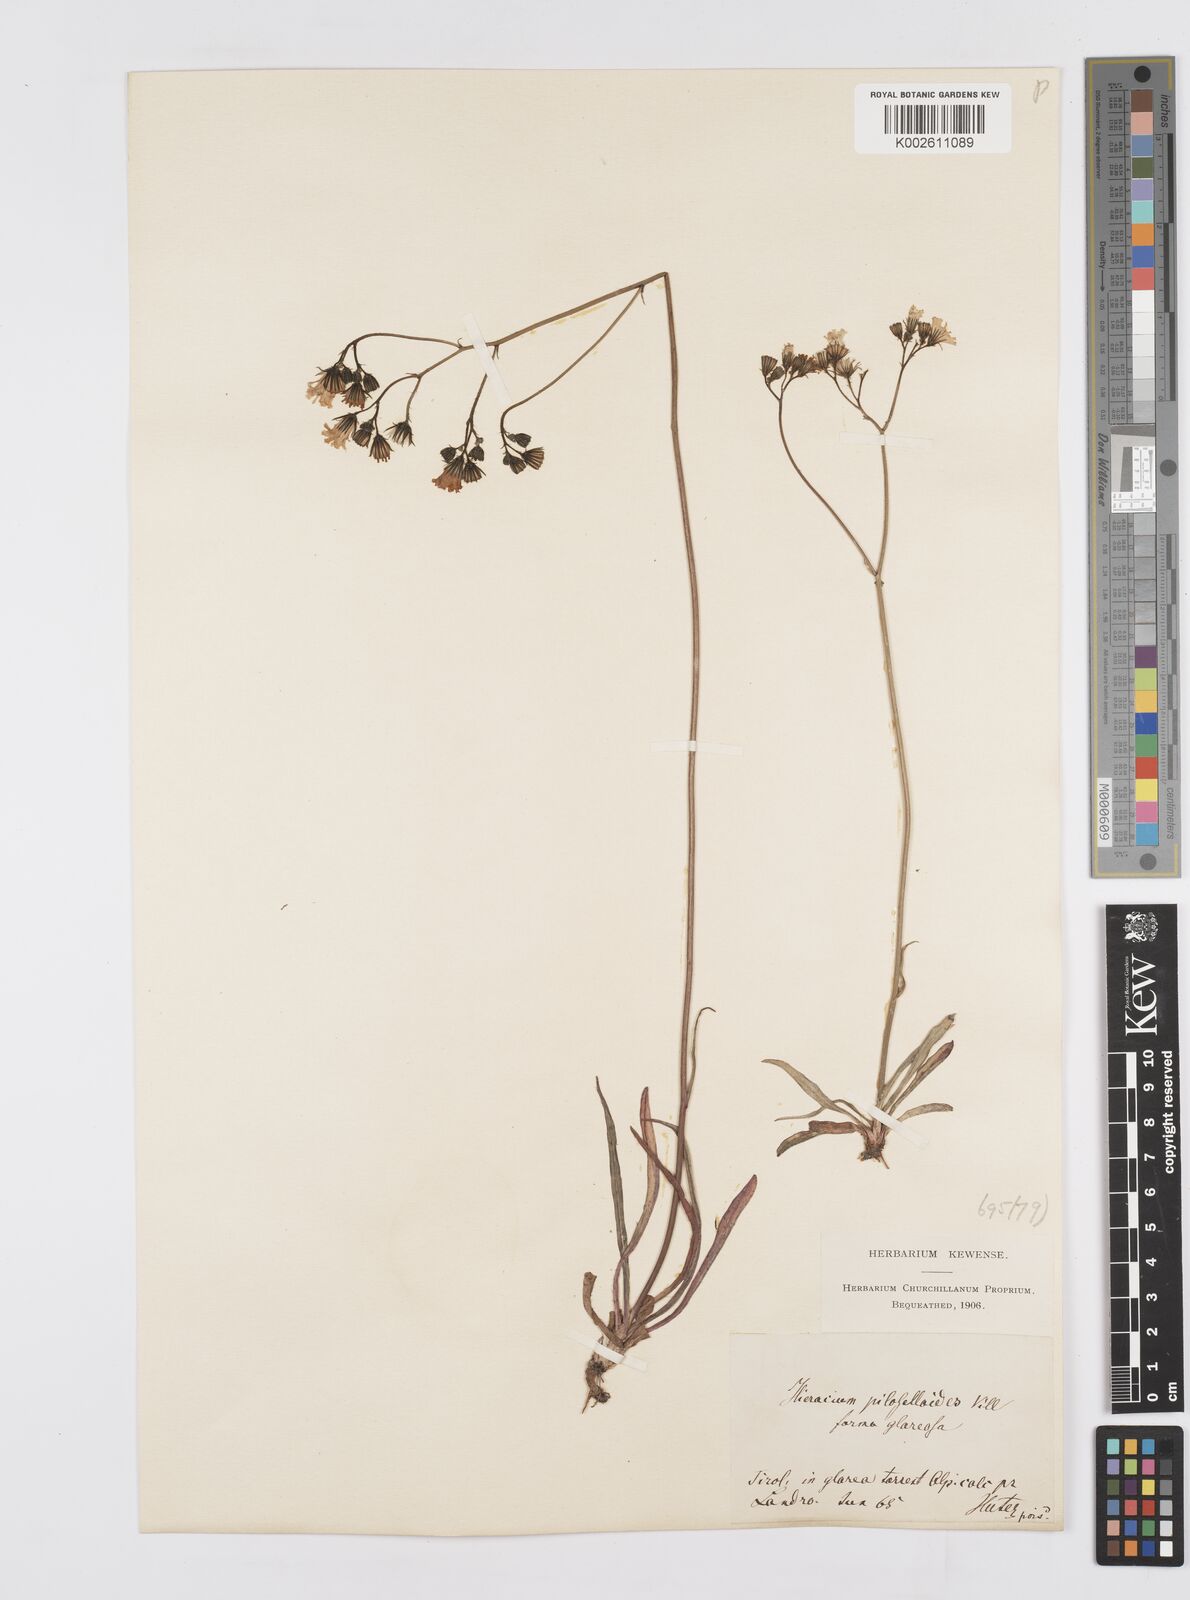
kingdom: Plantae
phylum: Tracheophyta
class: Magnoliopsida
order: Asterales
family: Asteraceae
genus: Pilosella
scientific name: Pilosella piloselloides
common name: Glaucous king-devil
